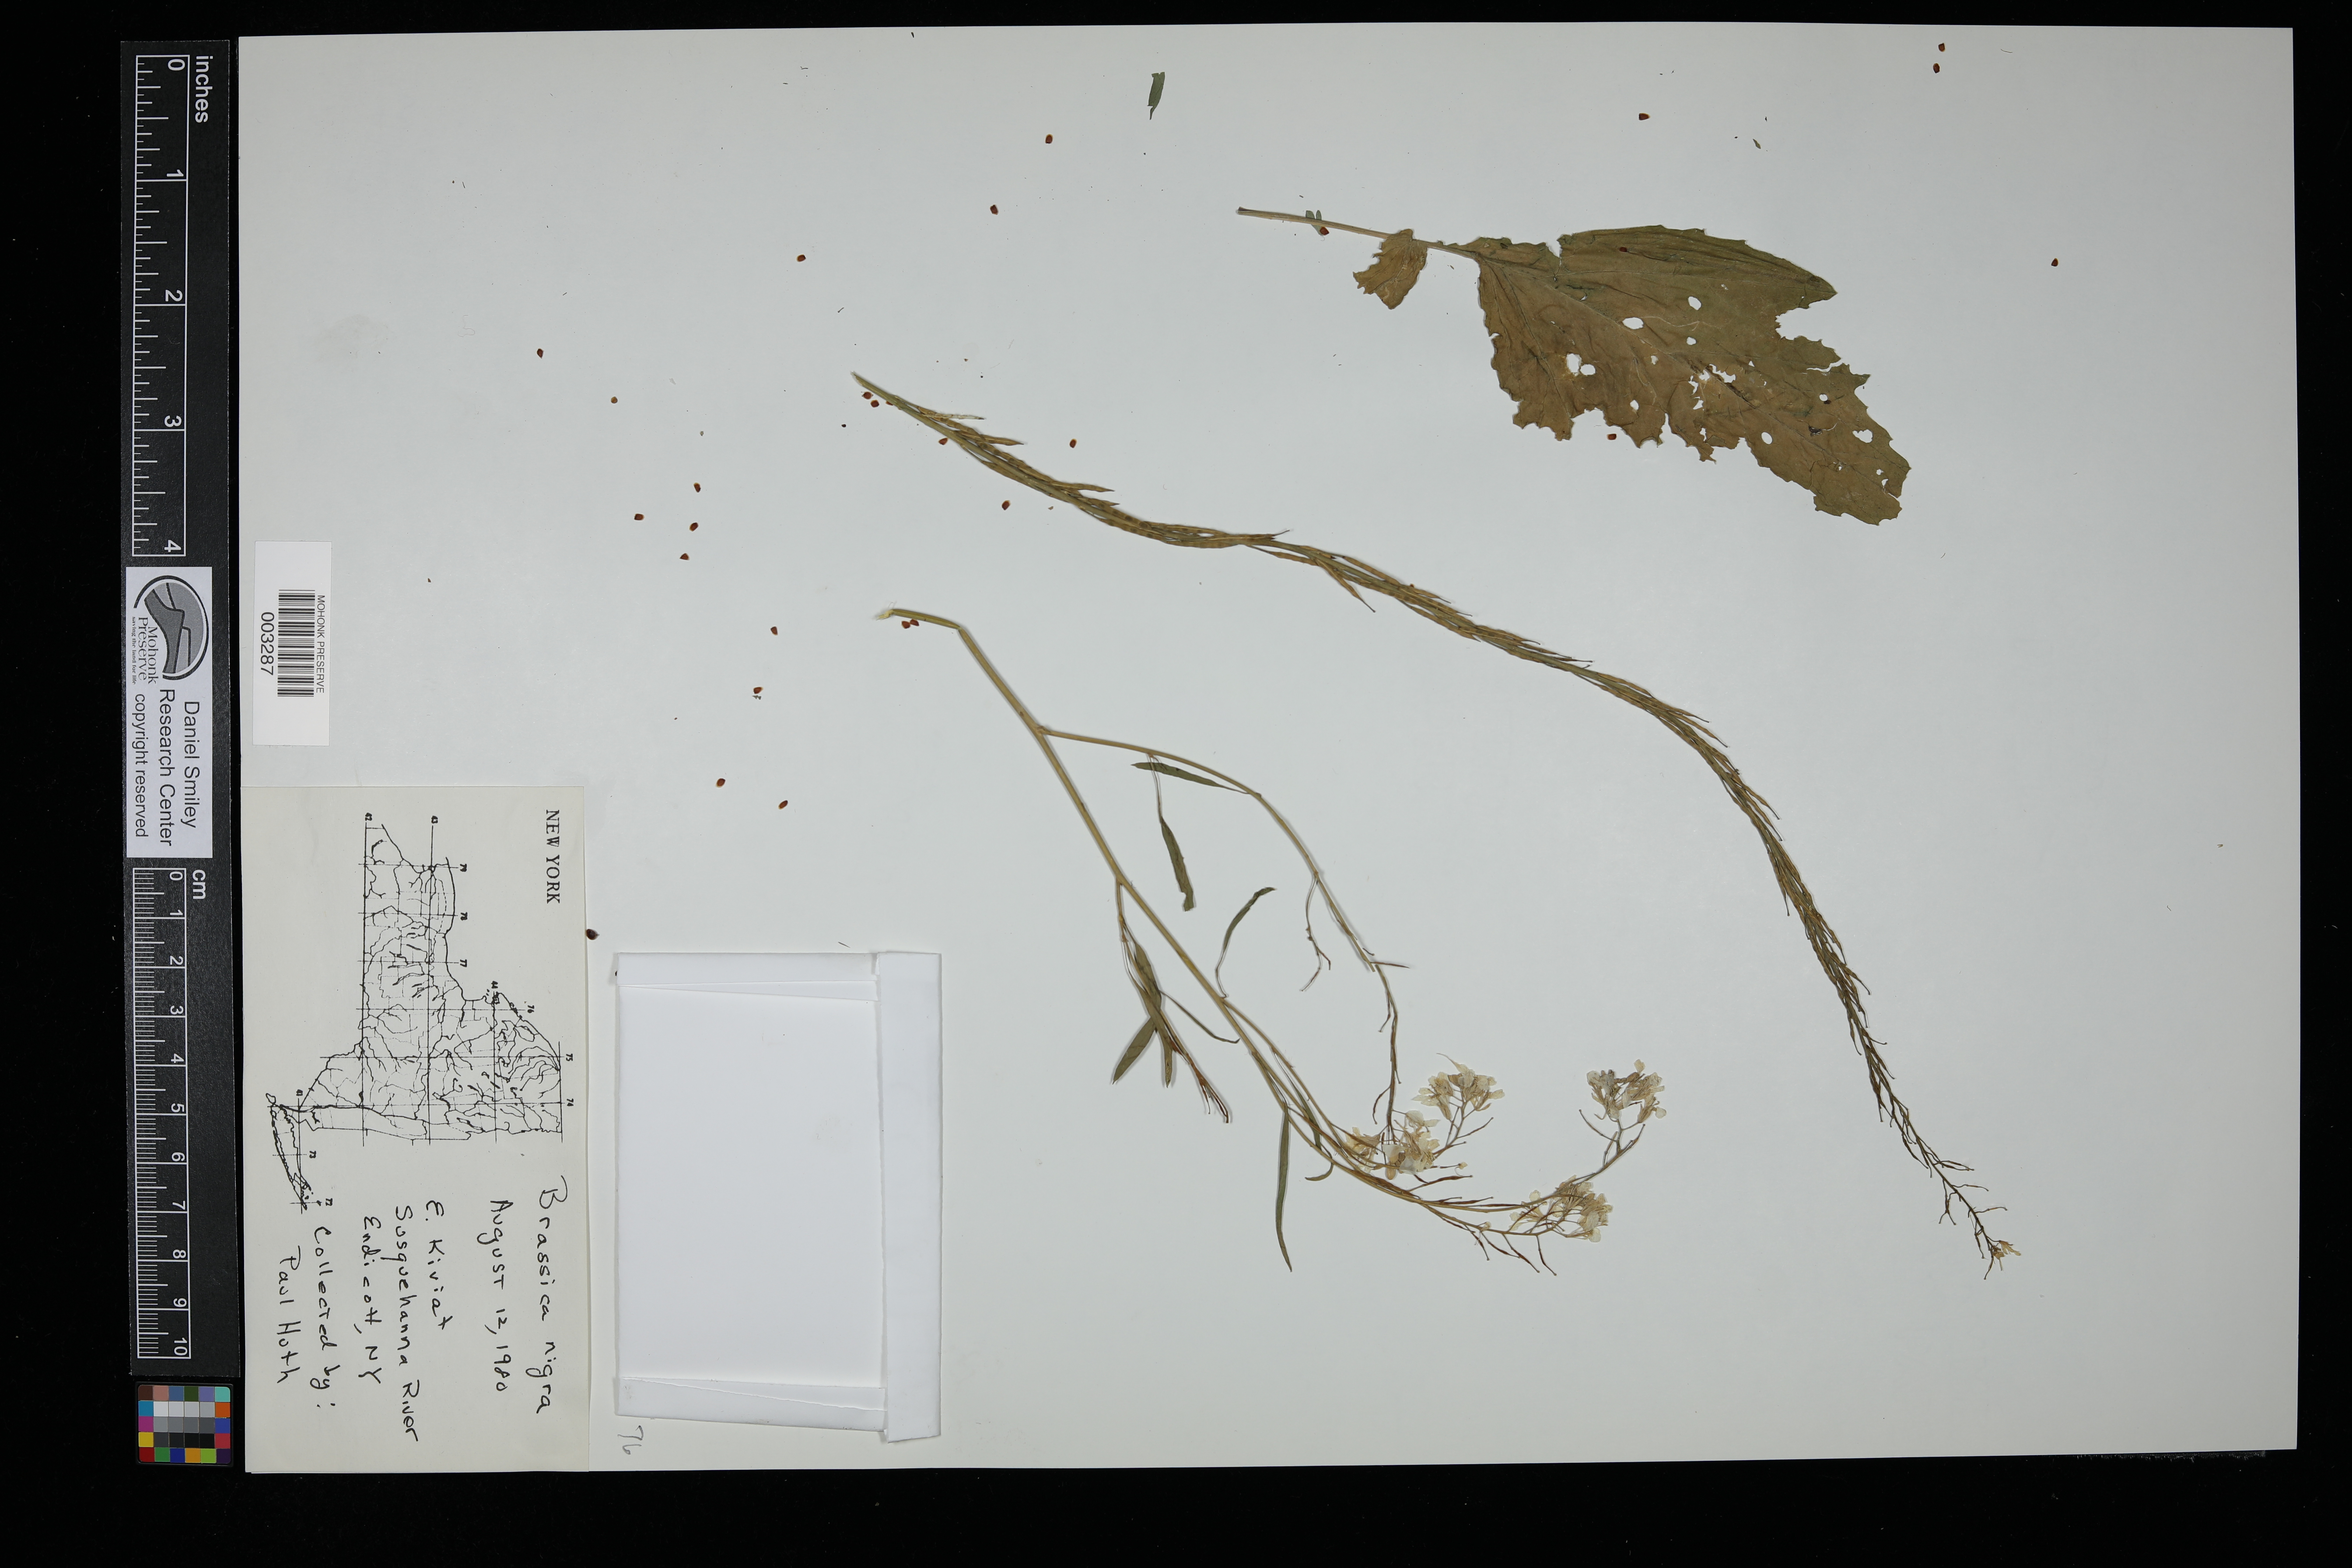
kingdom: Plantae
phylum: Tracheophyta
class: Magnoliopsida
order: Brassicales
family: Brassicaceae
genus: Brassica
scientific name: Brassica nigra
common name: Black mustard
